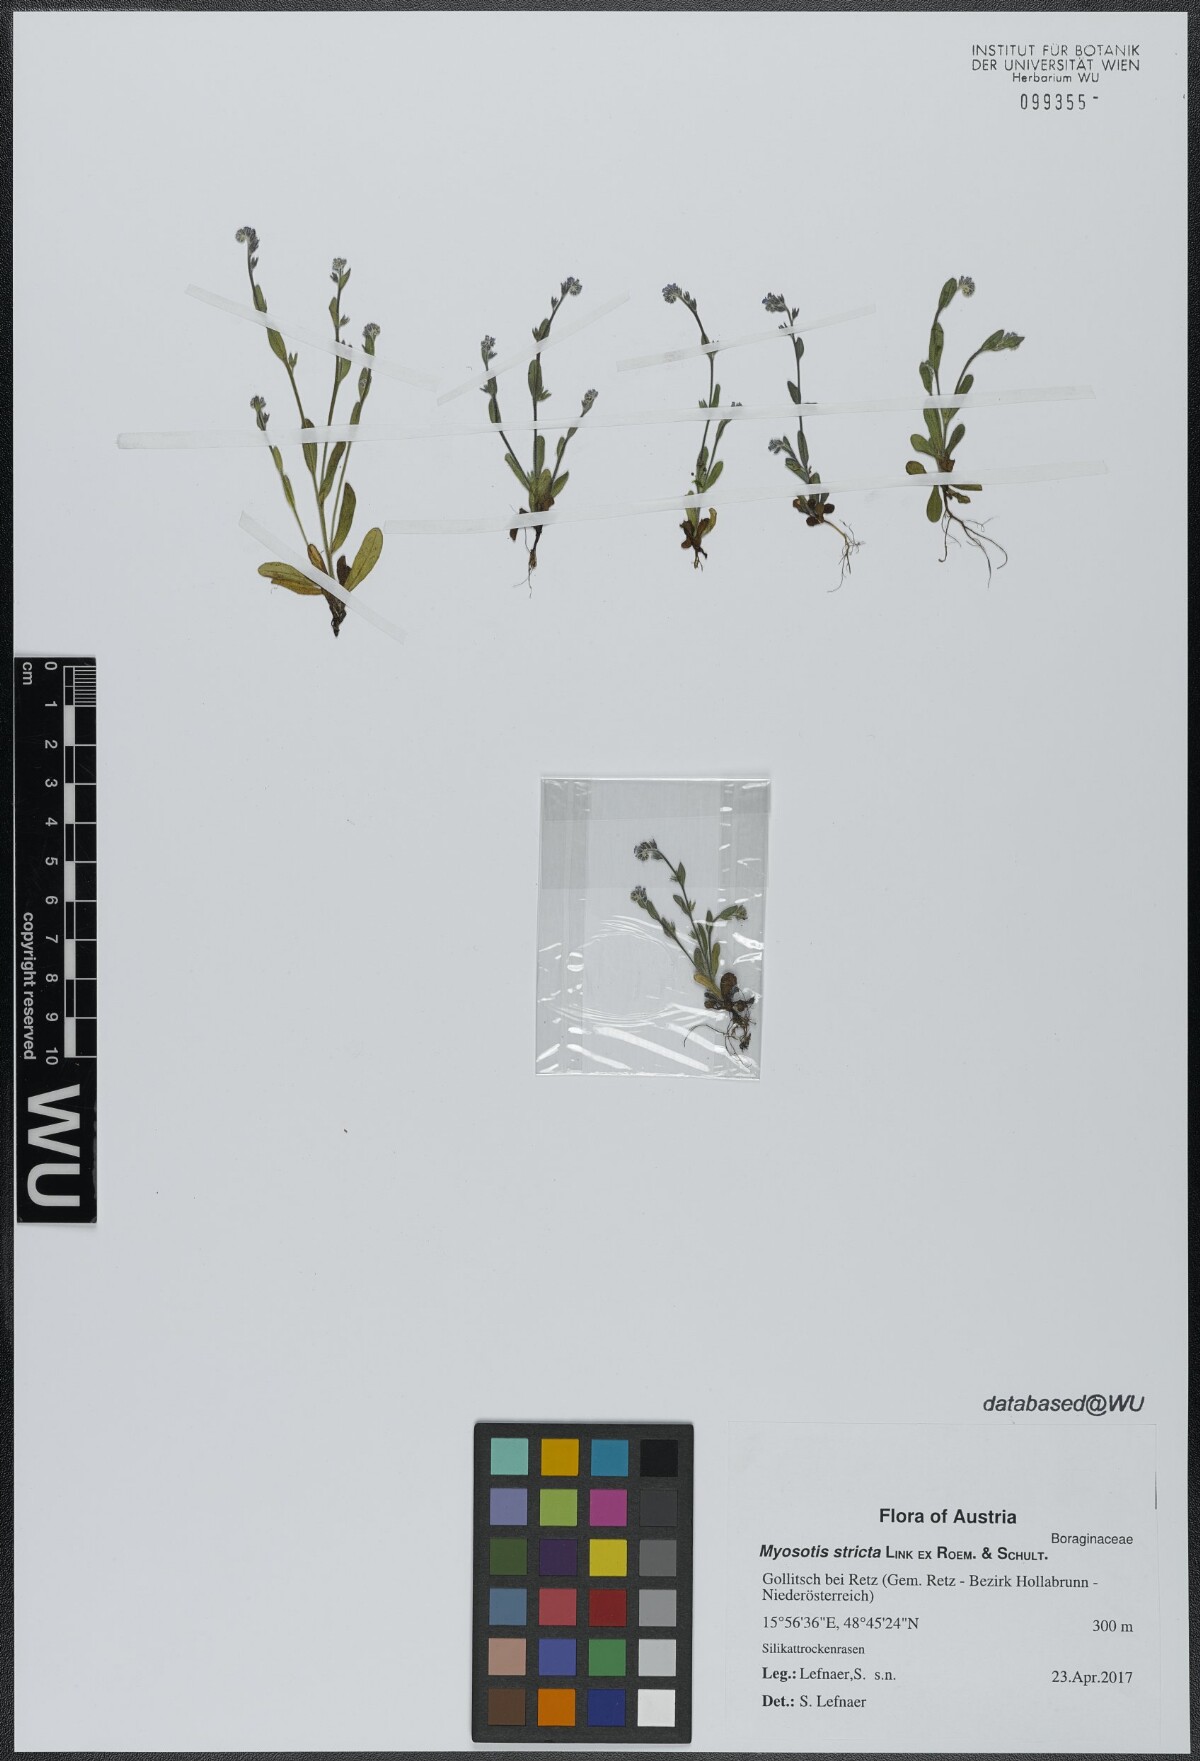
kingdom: Plantae
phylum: Tracheophyta
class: Magnoliopsida
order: Boraginales
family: Boraginaceae
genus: Myosotis
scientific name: Myosotis stricta
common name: Strict forget-me-not
